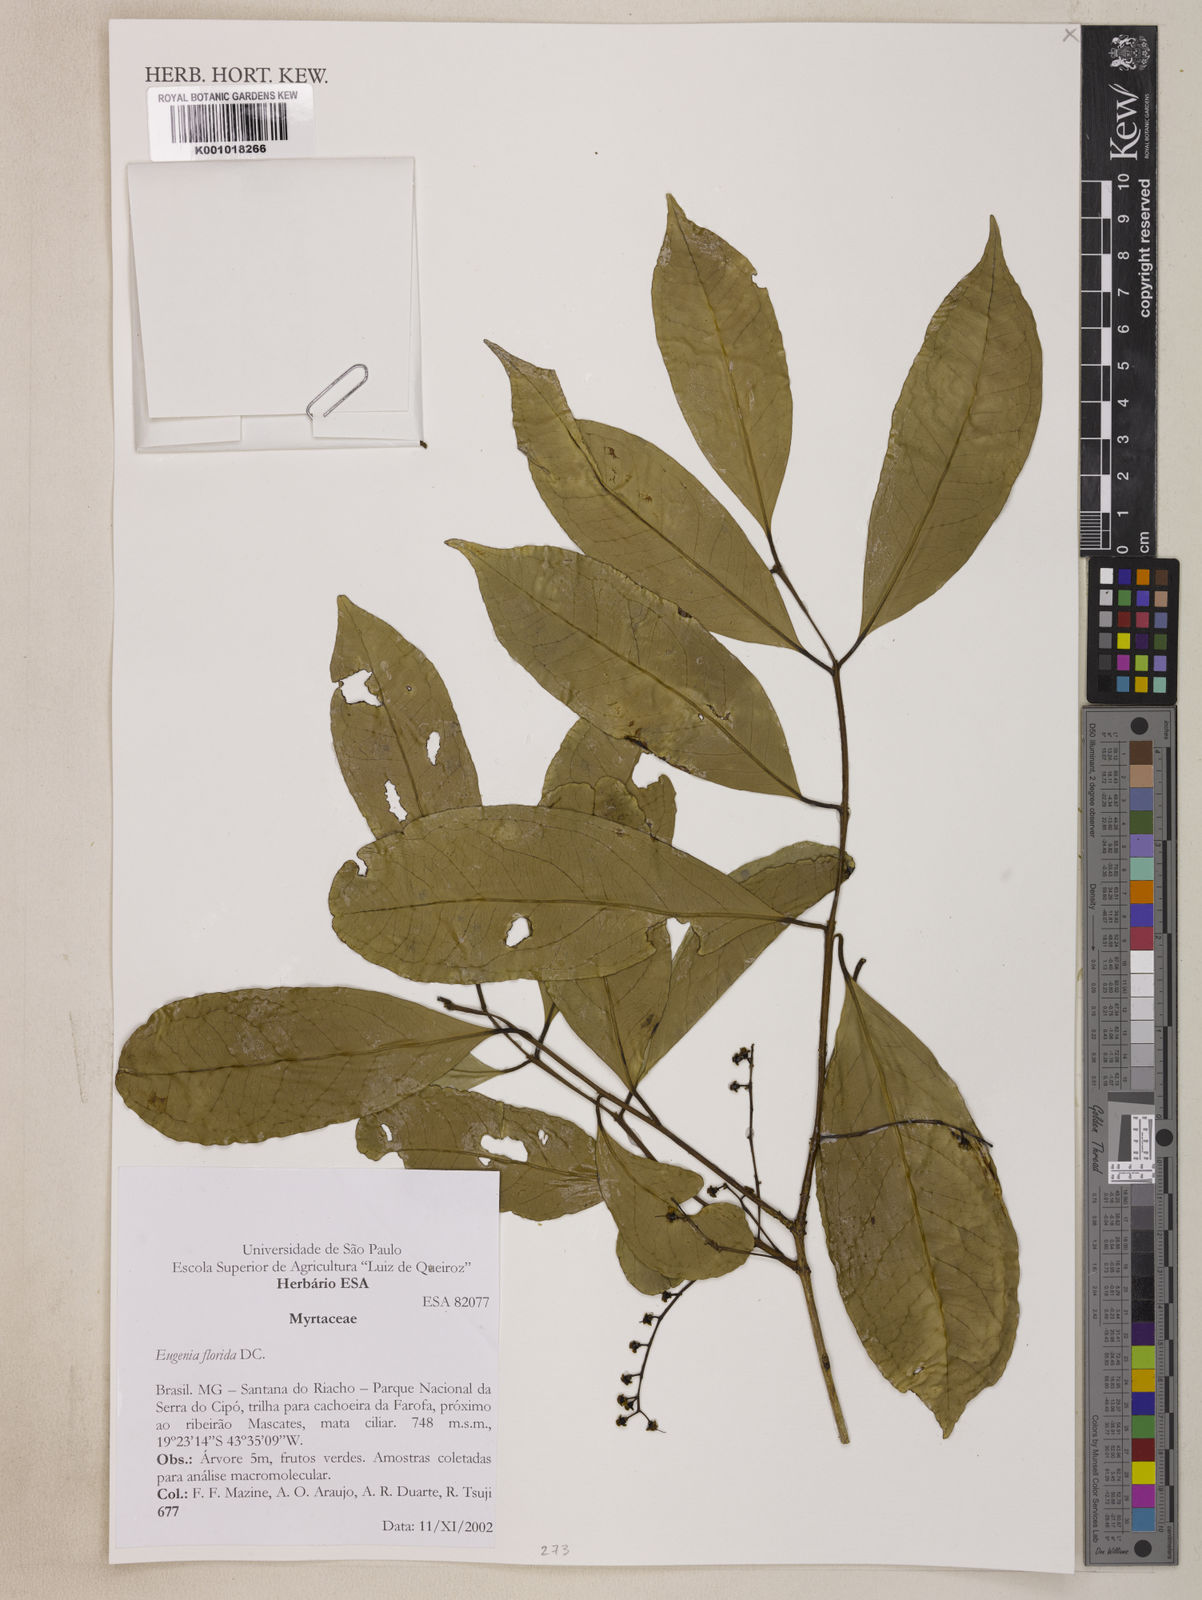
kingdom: Plantae
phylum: Tracheophyta
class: Magnoliopsida
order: Myrtales
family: Myrtaceae
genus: Eugenia
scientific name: Eugenia florida
